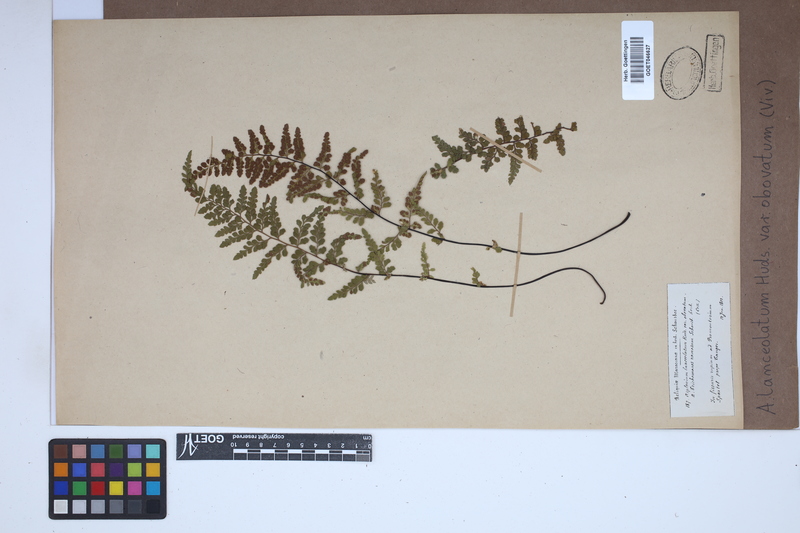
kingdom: Plantae
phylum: Tracheophyta
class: Polypodiopsida
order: Polypodiales
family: Aspleniaceae
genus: Asplenium
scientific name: Asplenium obovatum
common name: Lanceolate spleenwort
